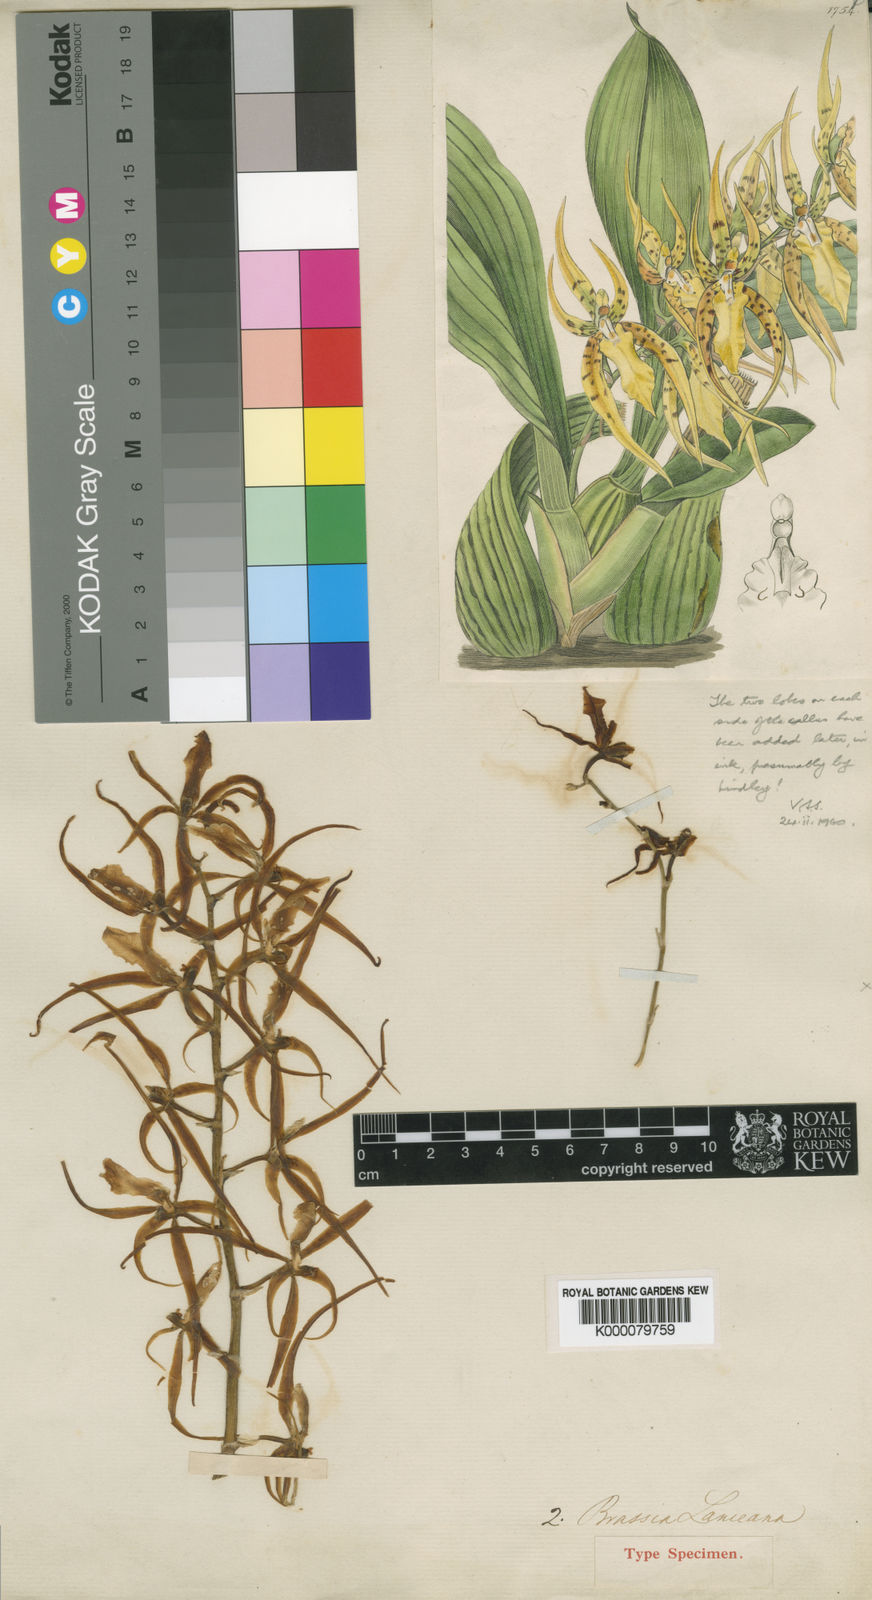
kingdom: Plantae
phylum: Tracheophyta
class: Liliopsida
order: Asparagales
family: Orchidaceae
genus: Brassia
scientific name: Brassia lanceana
